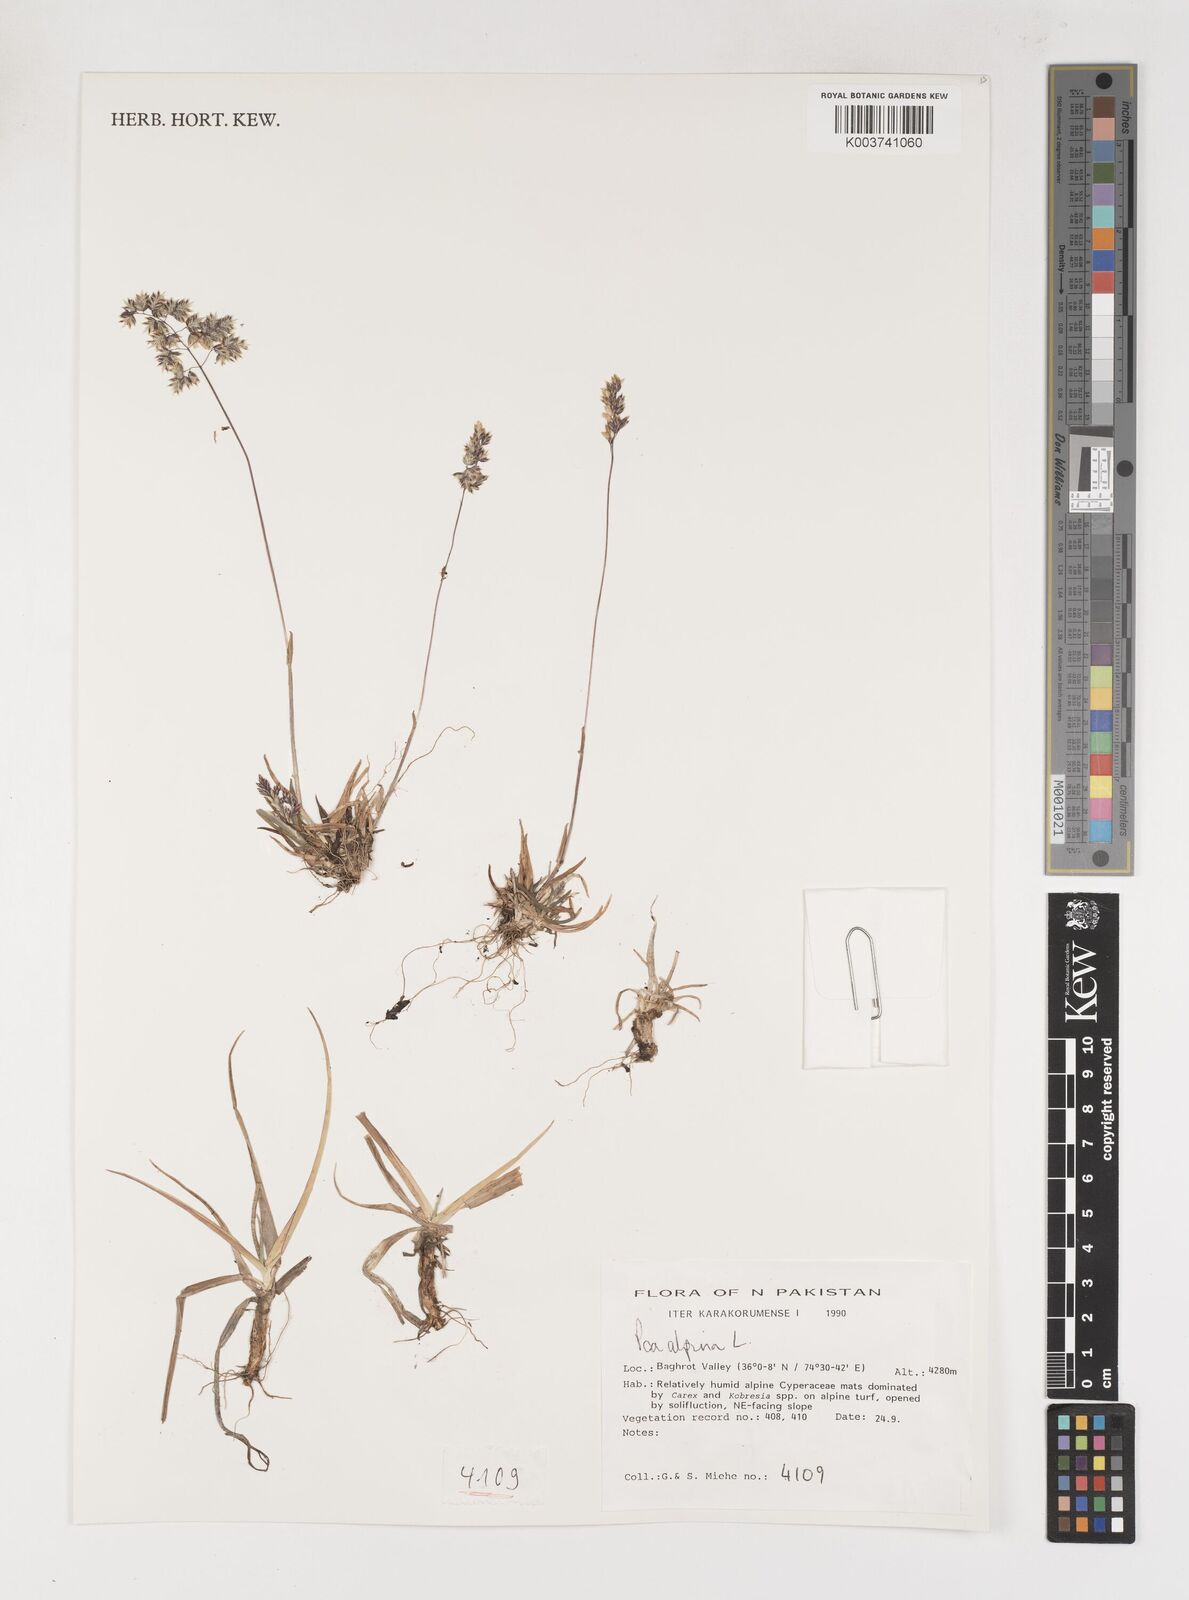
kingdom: Plantae
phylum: Tracheophyta
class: Liliopsida
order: Poales
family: Poaceae
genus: Poa
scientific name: Poa alpina
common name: Alpine bluegrass
